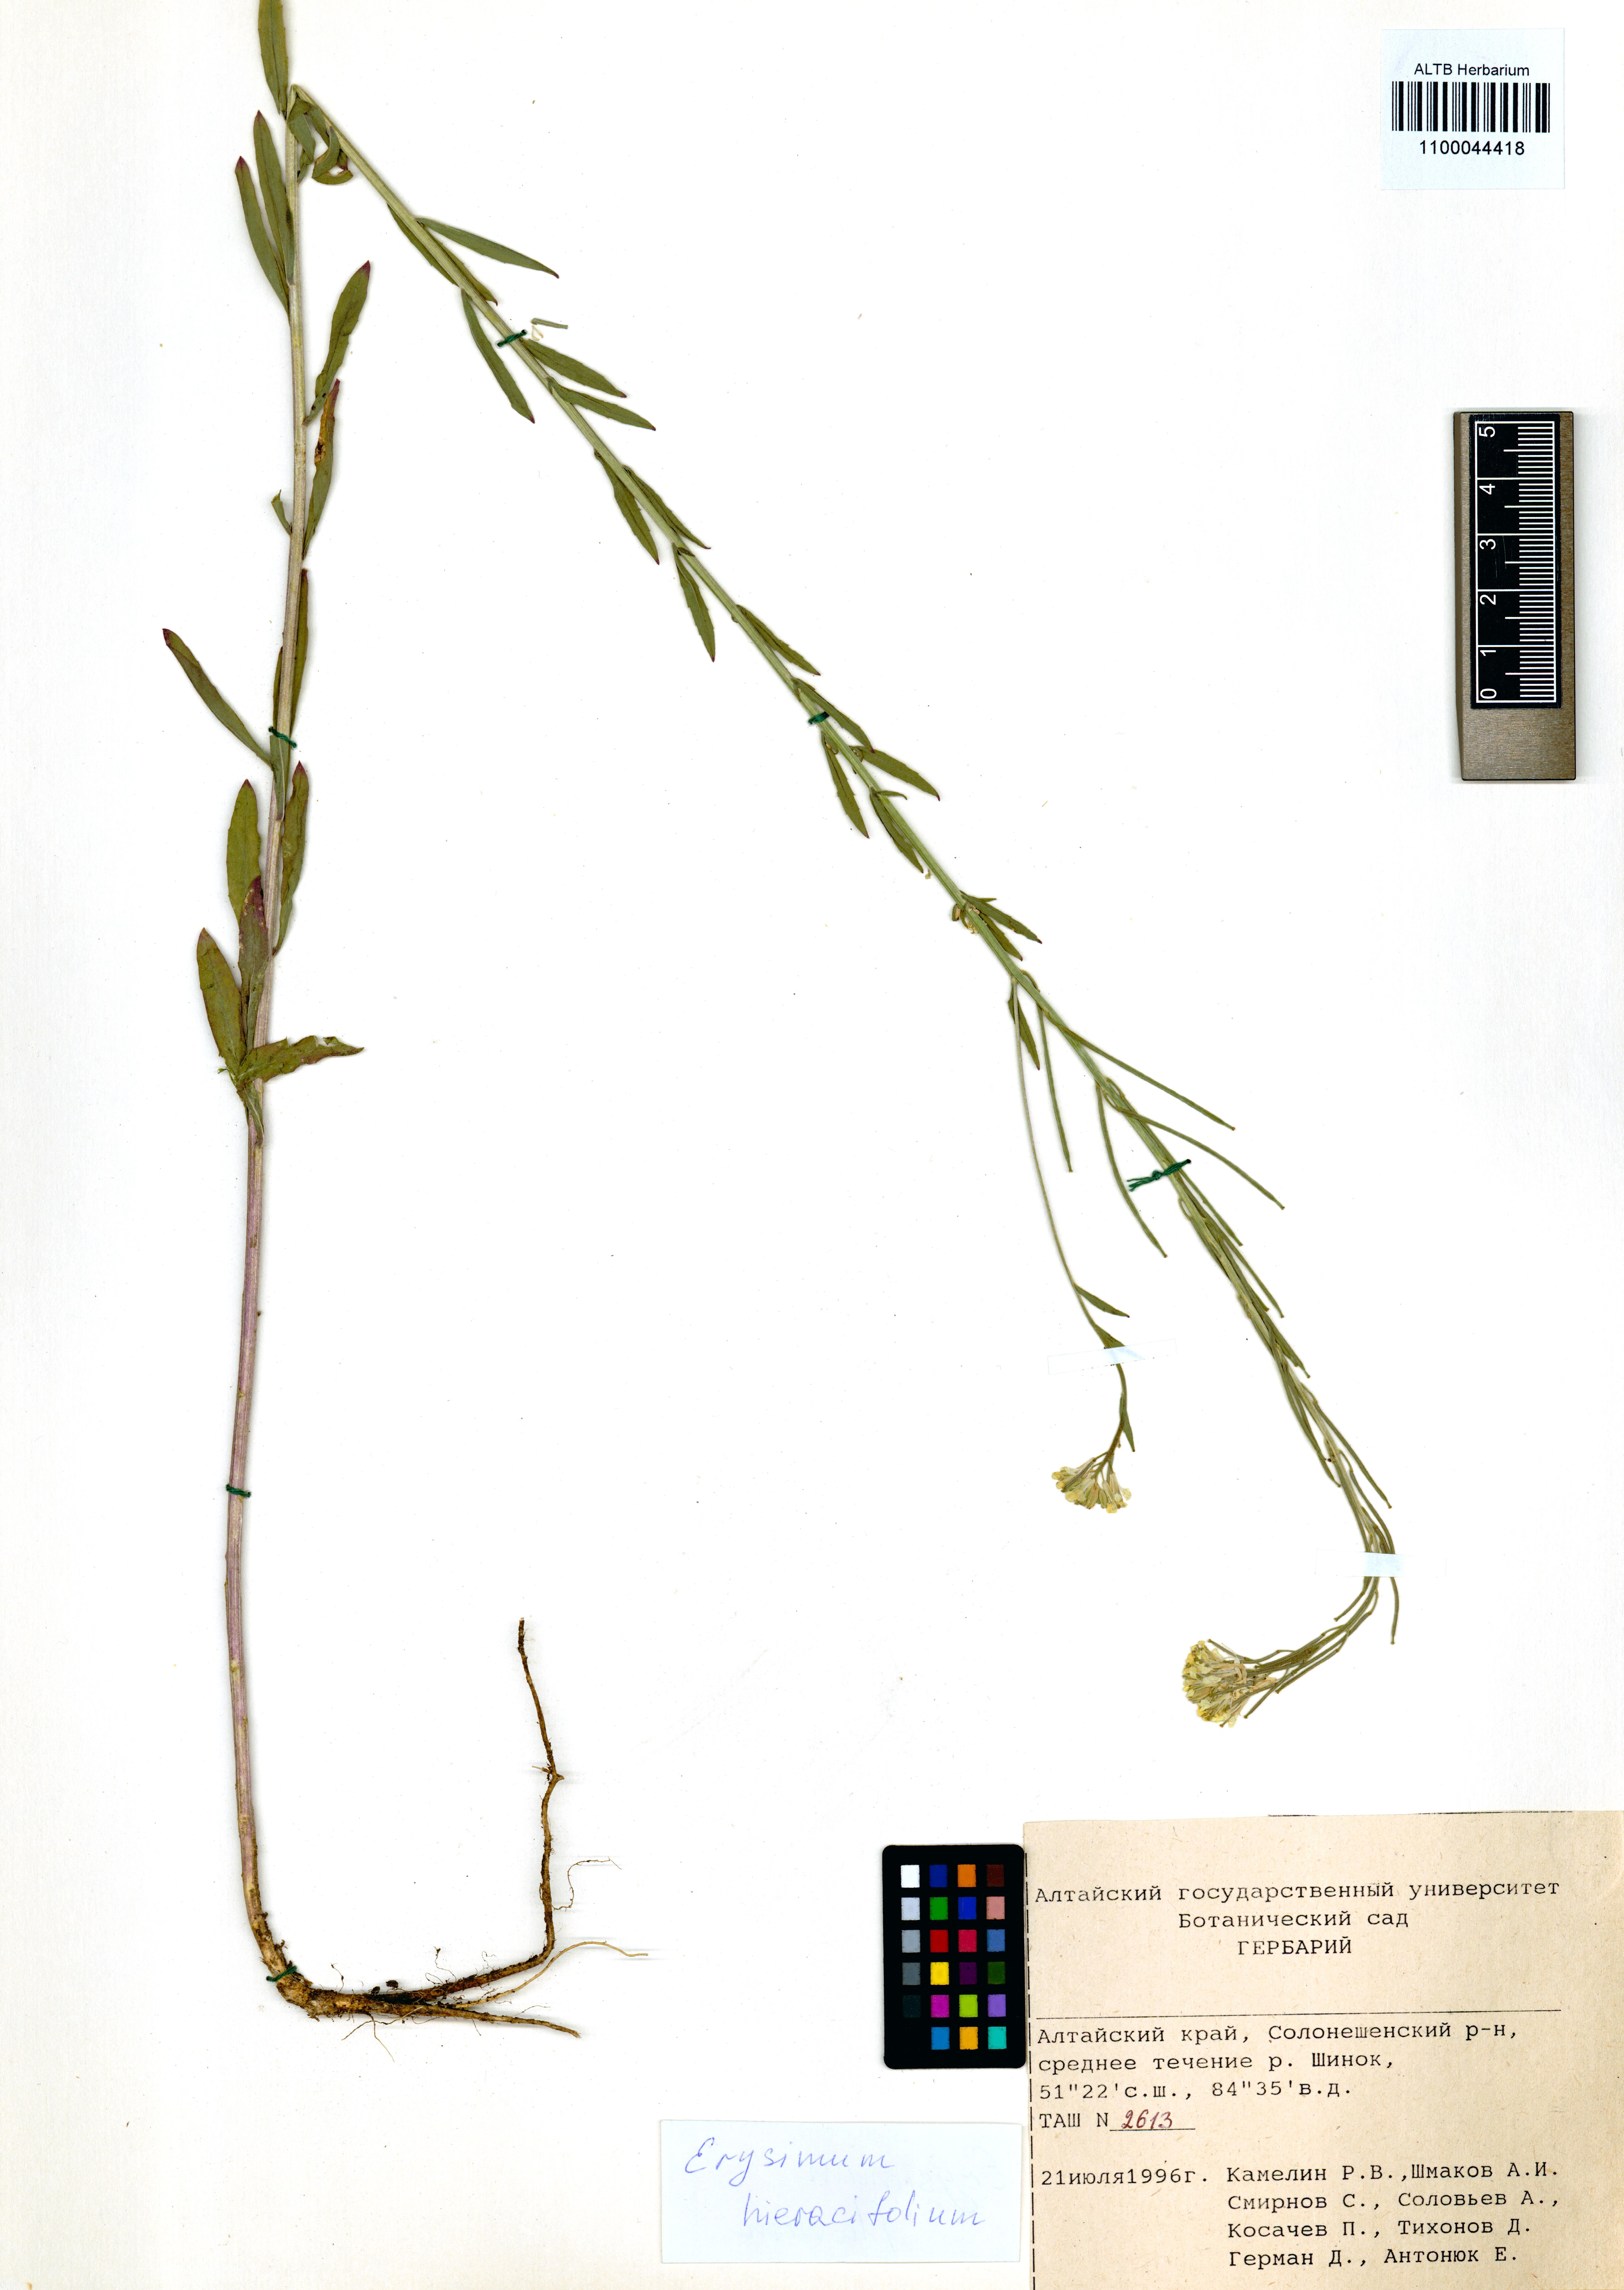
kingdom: Plantae
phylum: Tracheophyta
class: Magnoliopsida
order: Brassicales
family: Brassicaceae
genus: Erysimum
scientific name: Erysimum hieraciifolium
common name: European wallflower
